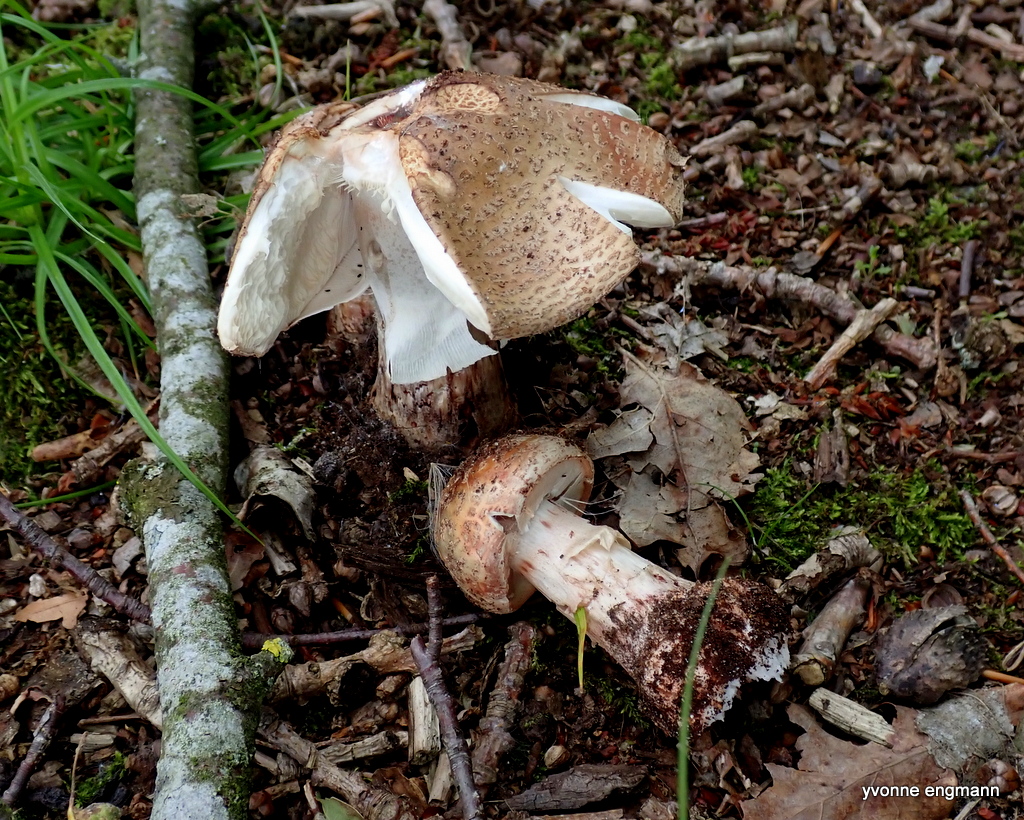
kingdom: Fungi
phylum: Basidiomycota
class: Agaricomycetes
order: Agaricales
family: Amanitaceae
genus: Amanita
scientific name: Amanita rubescens
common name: rødmende fluesvamp
